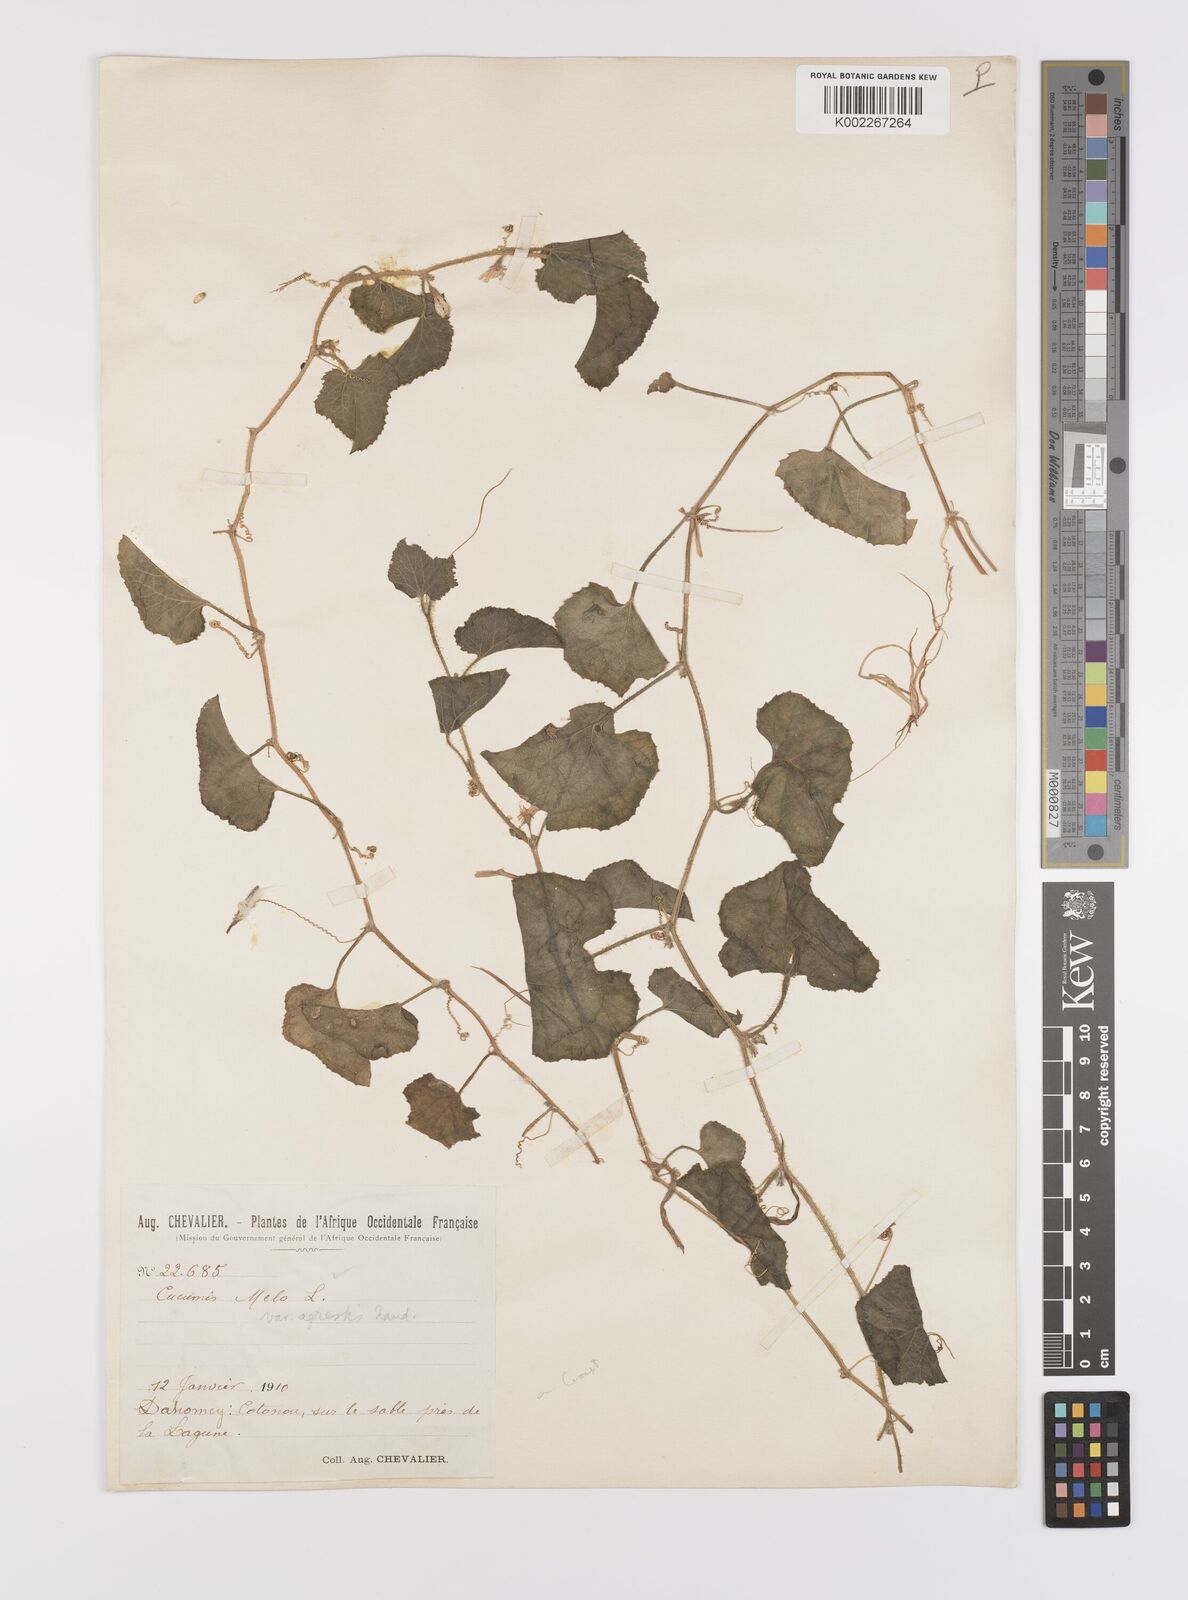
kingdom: Plantae
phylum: Tracheophyta
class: Magnoliopsida
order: Cucurbitales
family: Cucurbitaceae
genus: Cucumis
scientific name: Cucumis melo
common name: Melon
